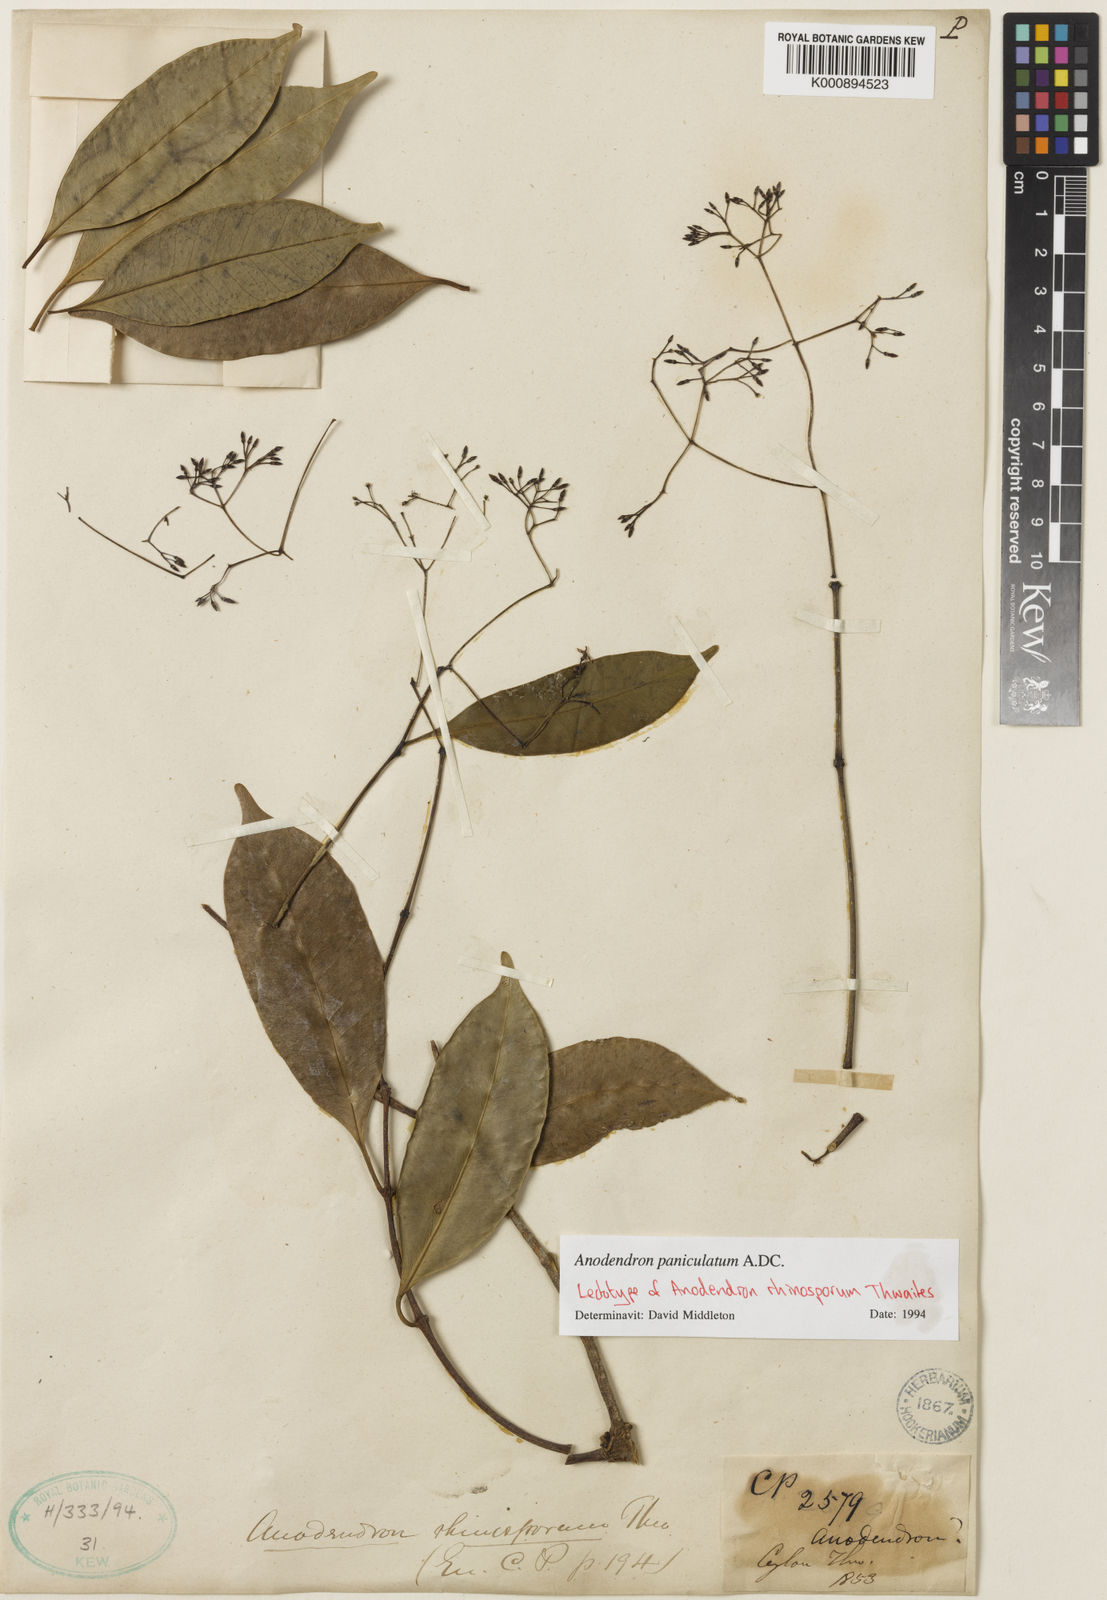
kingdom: Plantae
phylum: Tracheophyta
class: Magnoliopsida
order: Gentianales
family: Apocynaceae
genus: Anodendron
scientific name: Anodendron parviflorum
